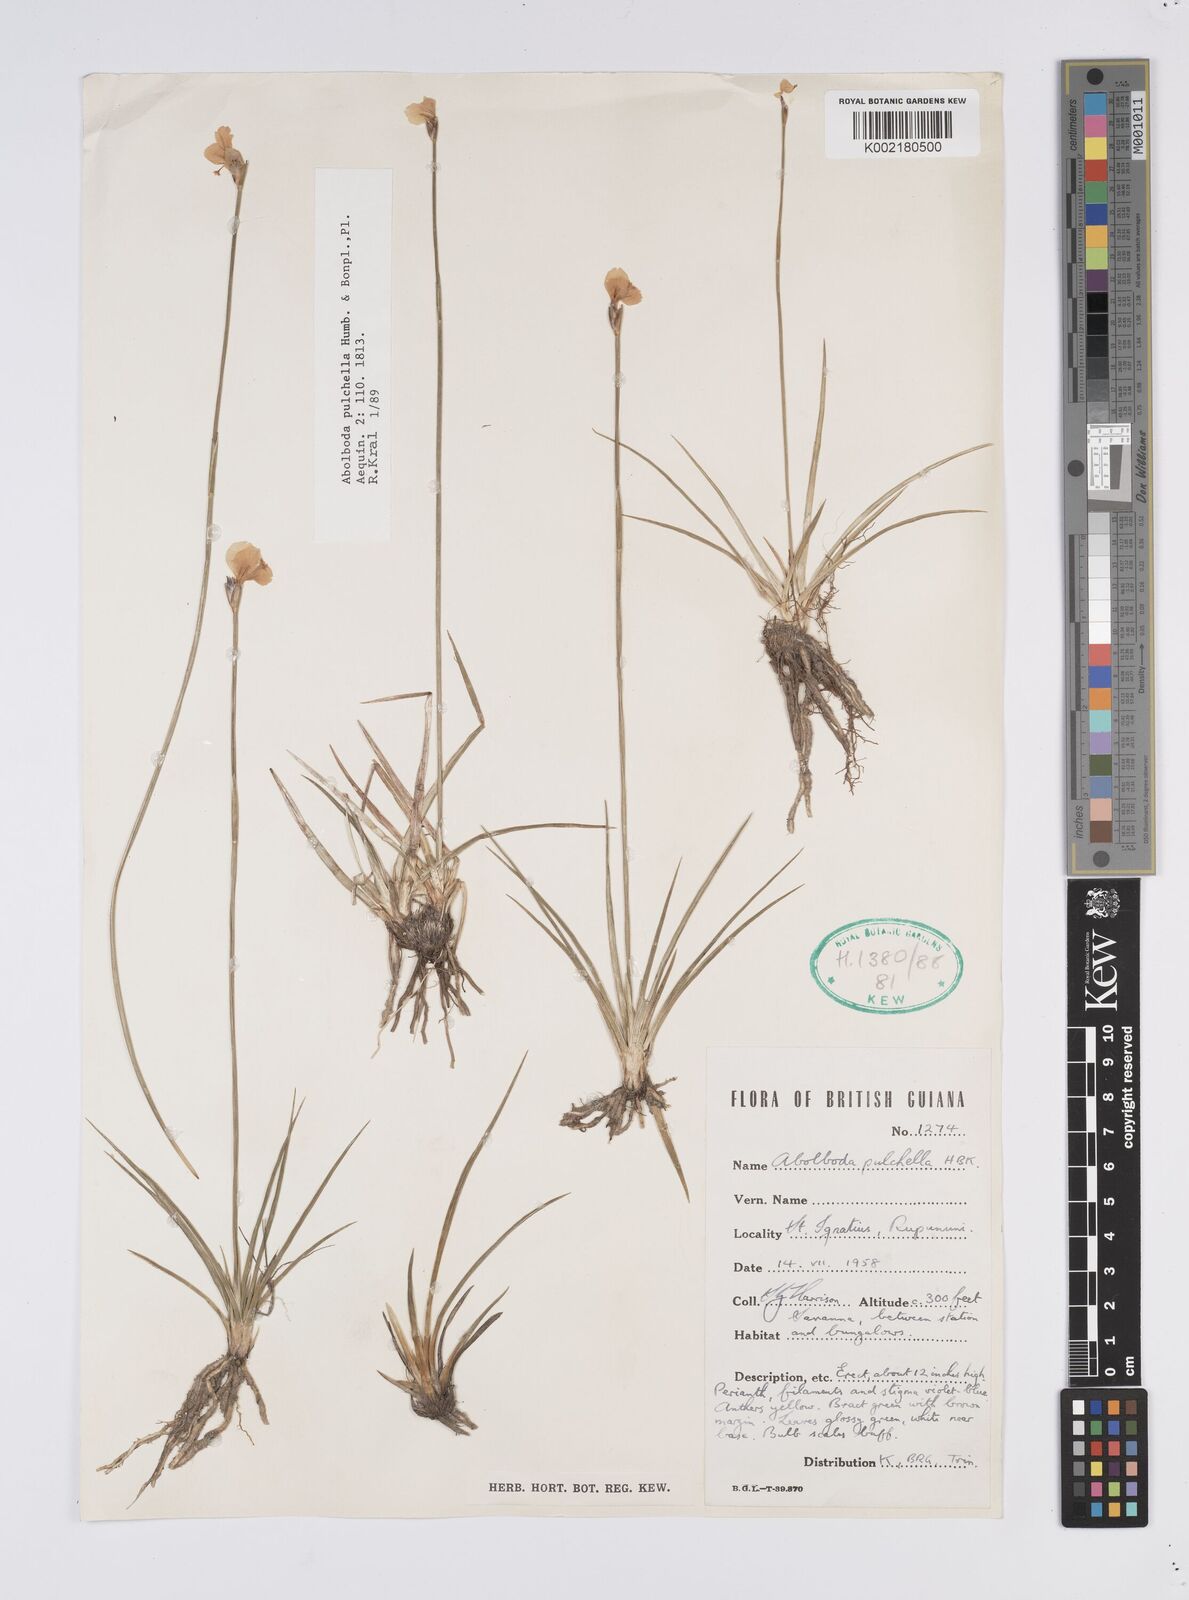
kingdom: Plantae
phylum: Tracheophyta
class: Liliopsida
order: Poales
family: Xyridaceae
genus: Abolboda
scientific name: Abolboda pulchella
